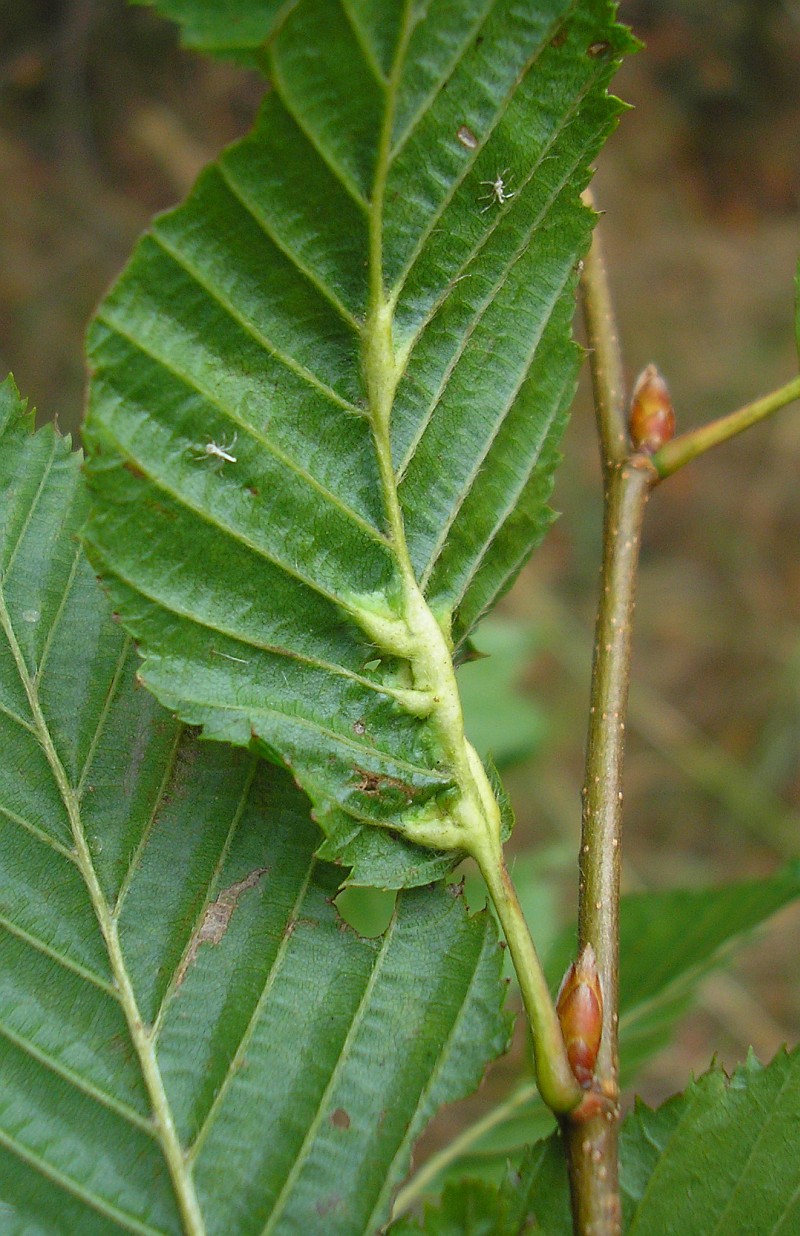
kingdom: Animalia
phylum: Arthropoda
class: Insecta
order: Diptera
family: Cecidomyiidae
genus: Zygiobia
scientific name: Zygiobia carpini
